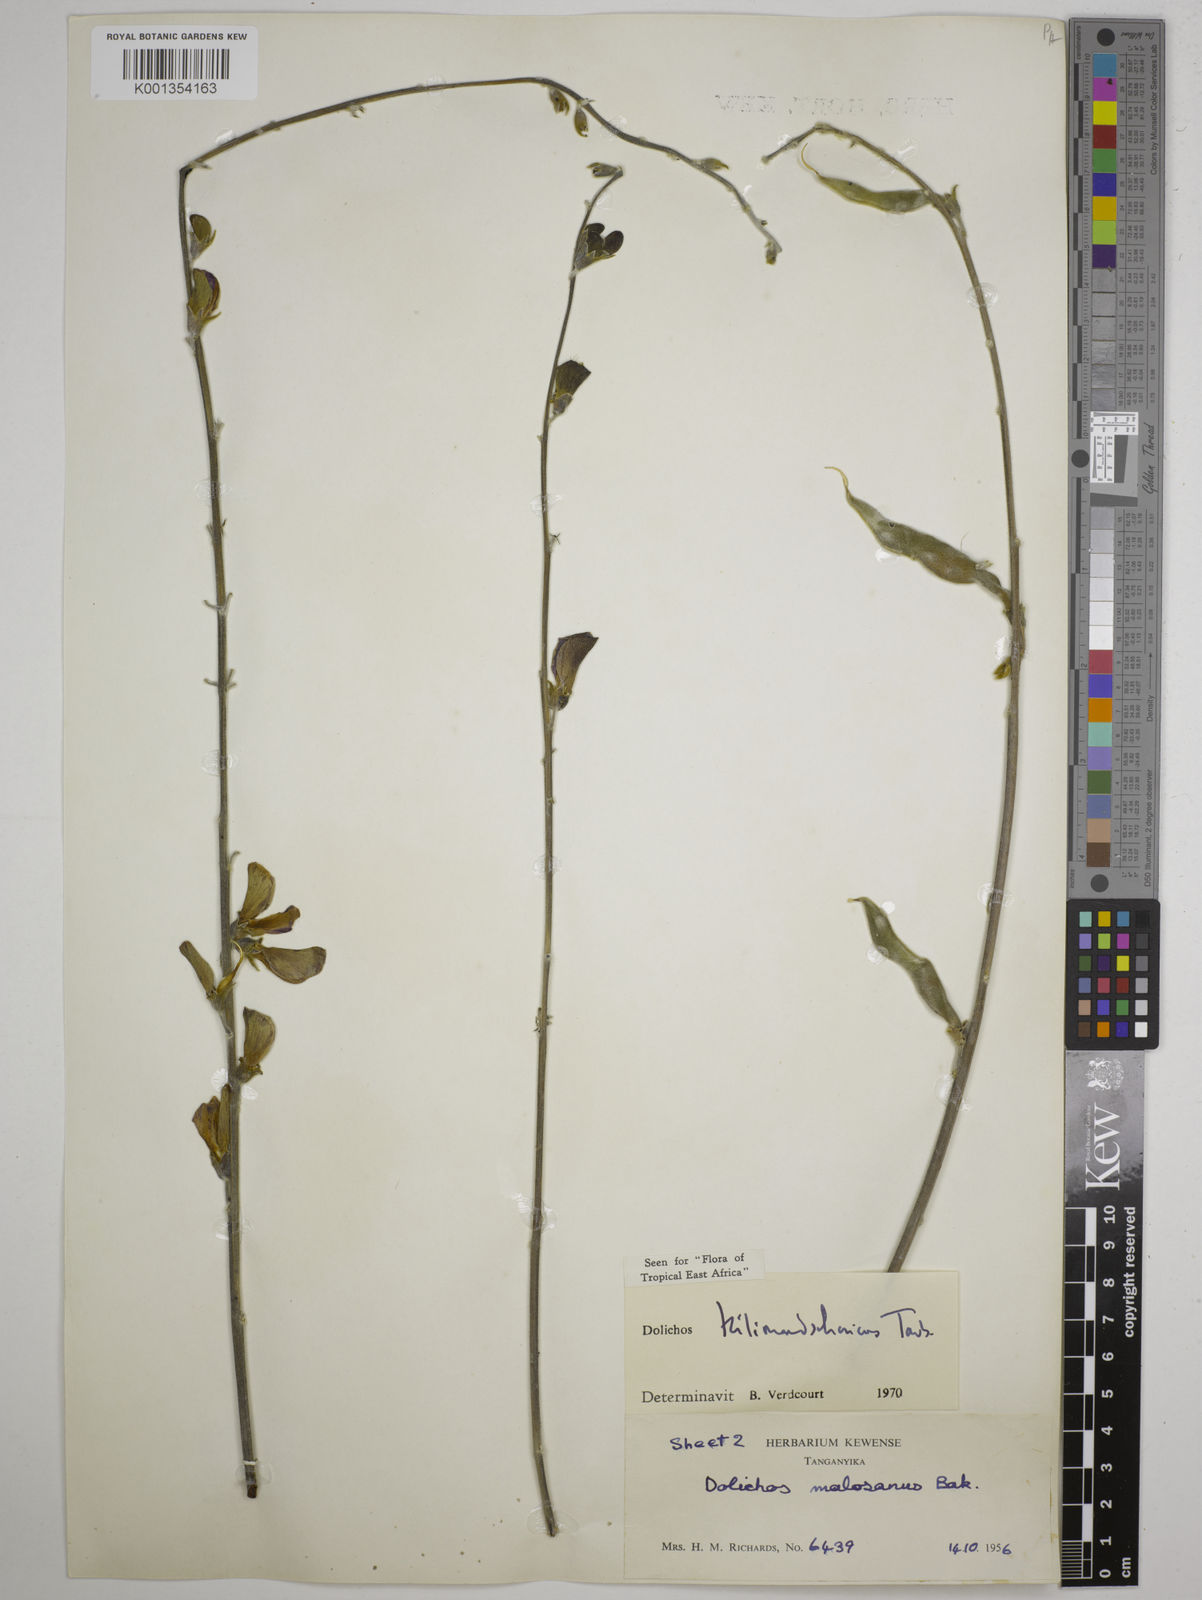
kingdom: Plantae
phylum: Tracheophyta
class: Magnoliopsida
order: Fabales
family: Fabaceae
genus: Dolichos
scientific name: Dolichos kilimandscharicus
